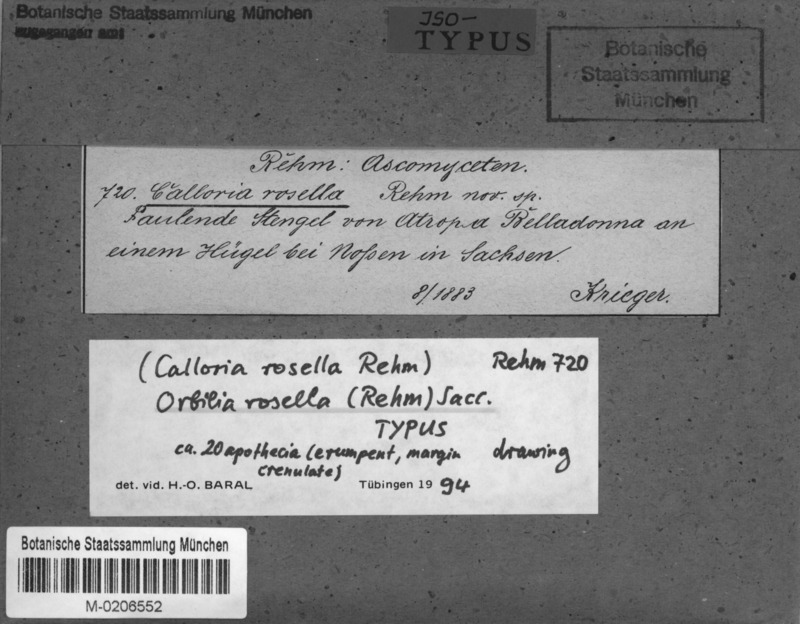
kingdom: Fungi
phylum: Ascomycota
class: Orbiliomycetes
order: Orbiliales
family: Orbiliaceae
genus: Orbilia
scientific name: Orbilia rosella
